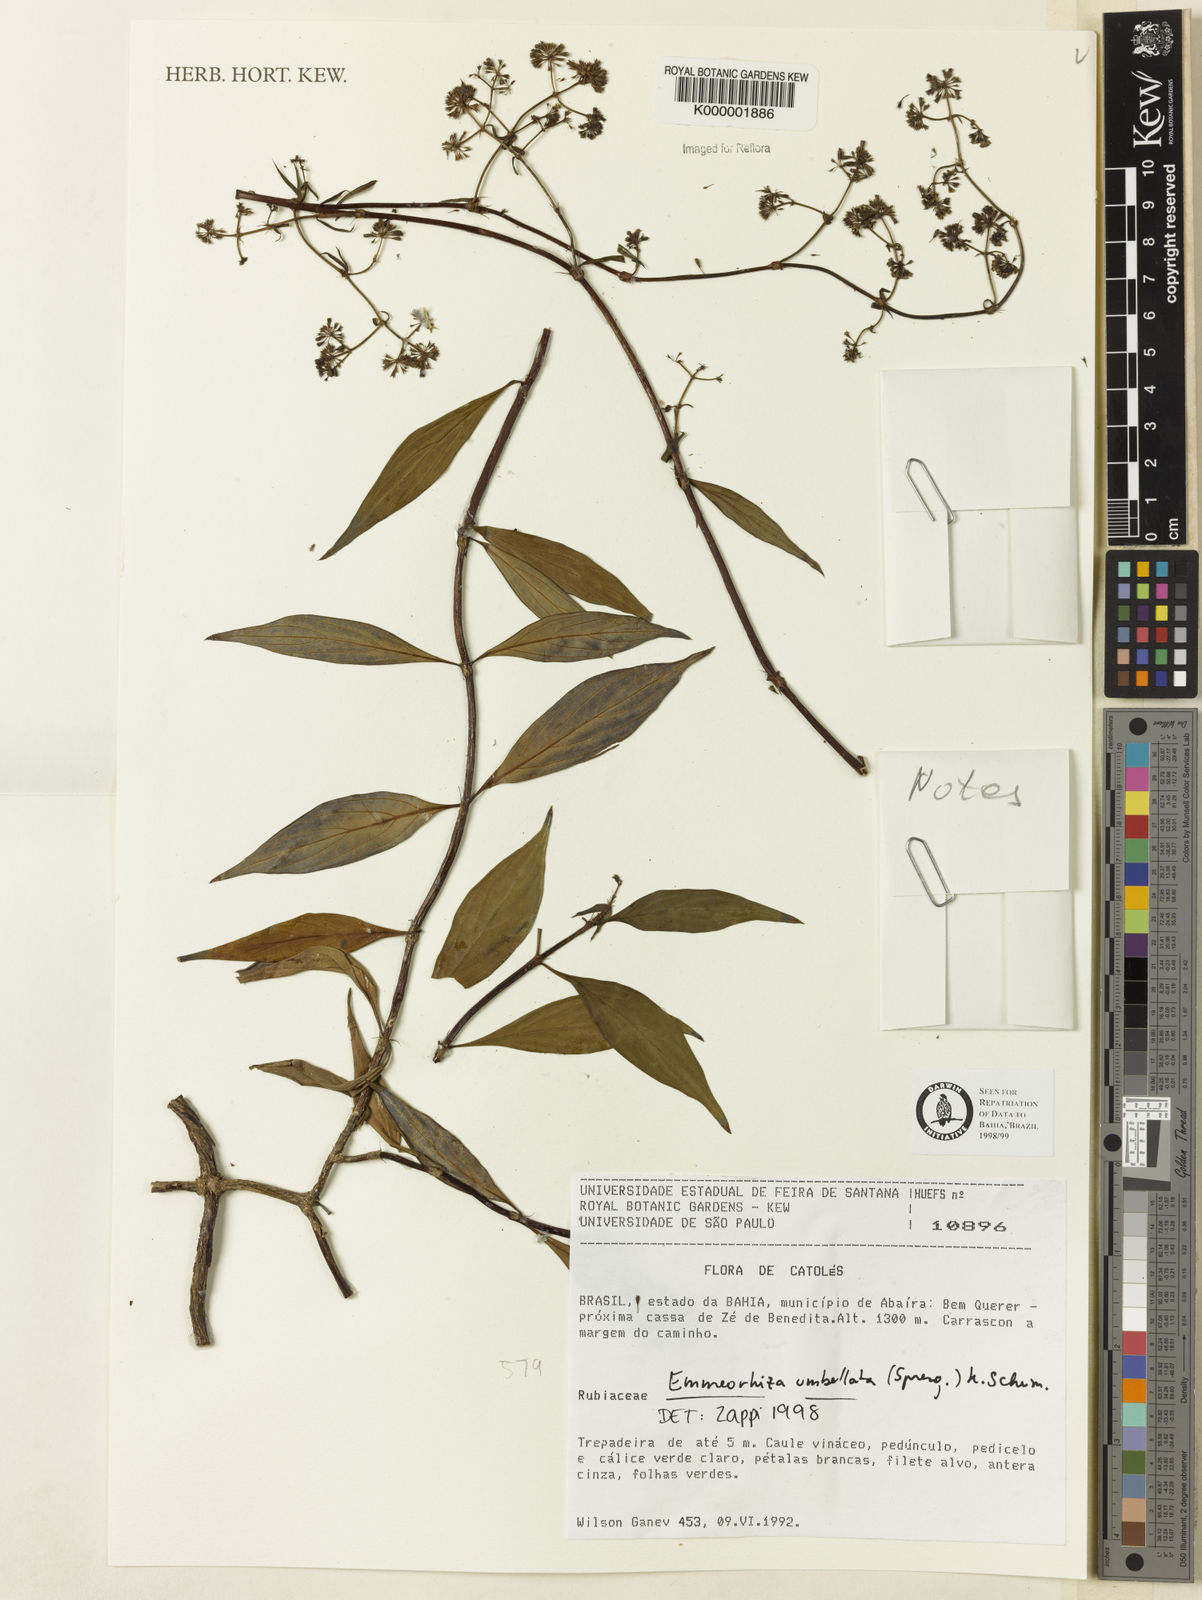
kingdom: Plantae
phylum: Tracheophyta
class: Magnoliopsida
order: Gentianales
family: Rubiaceae
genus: Emmeorhiza
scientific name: Emmeorhiza umbellata
